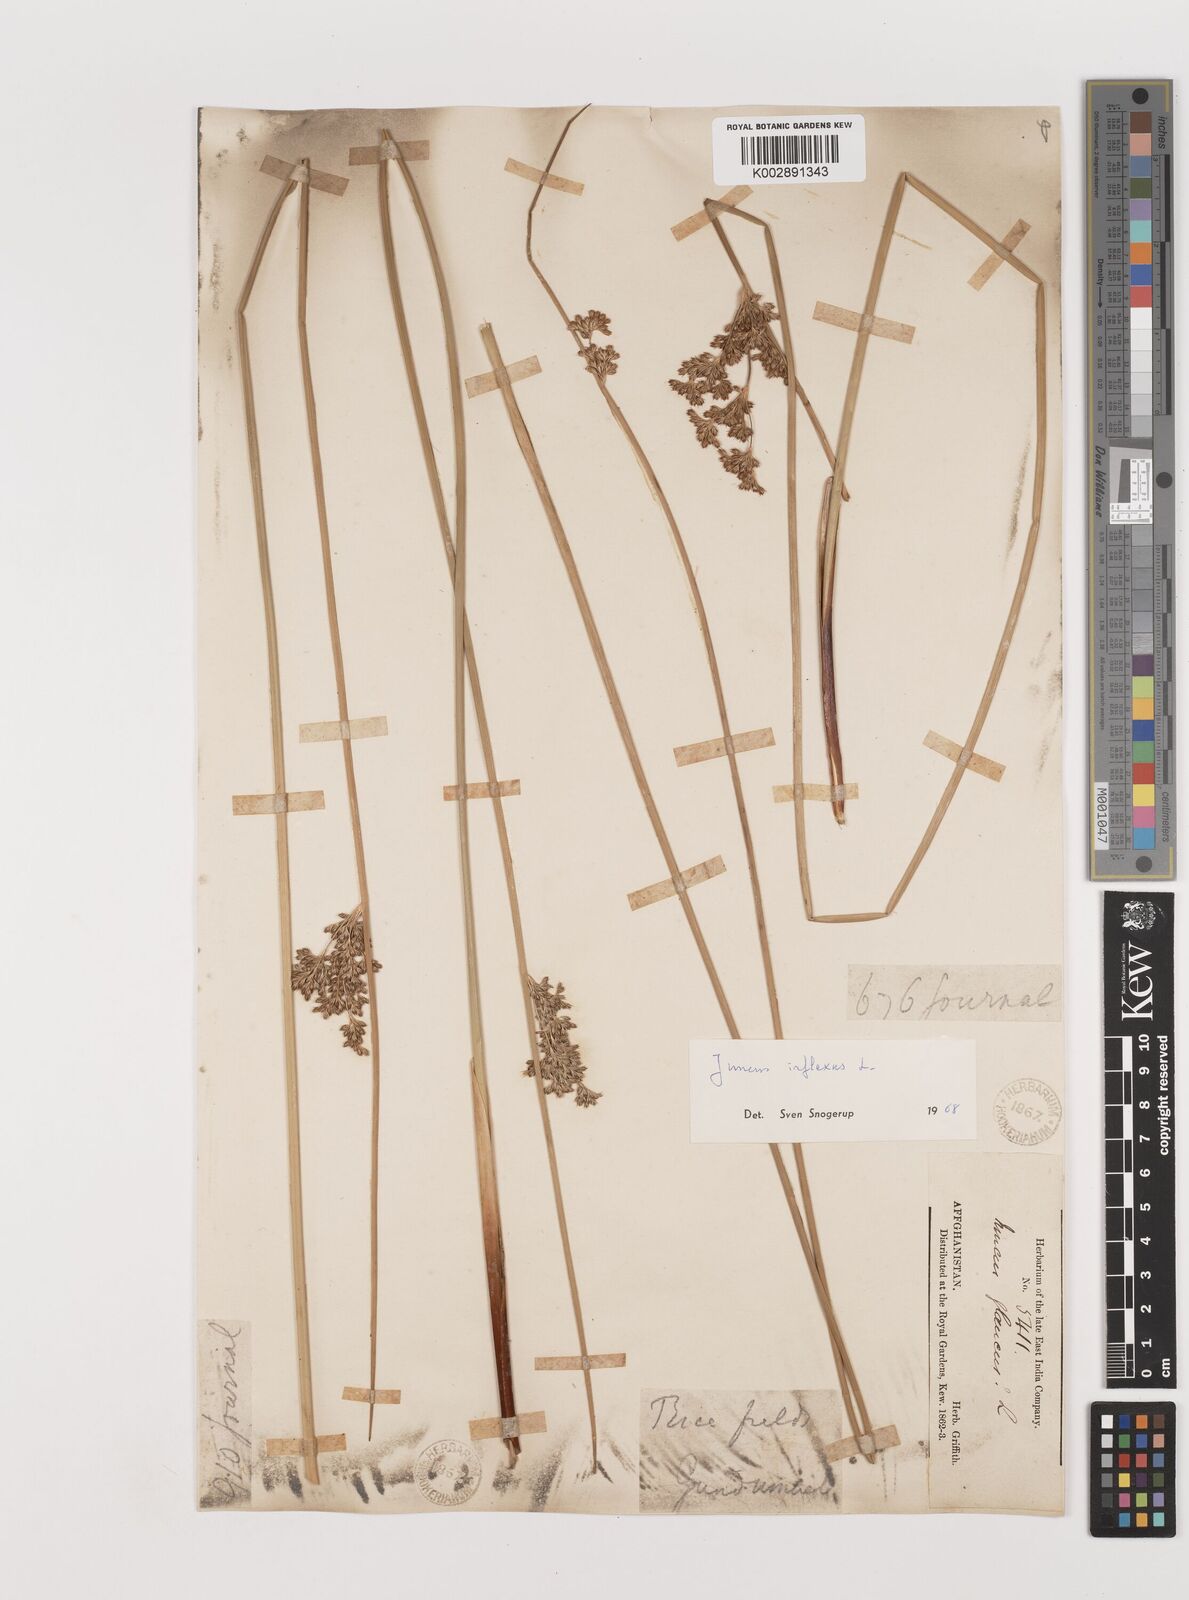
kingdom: Plantae
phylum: Tracheophyta
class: Liliopsida
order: Poales
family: Juncaceae
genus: Juncus
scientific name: Juncus inflexus
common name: Hard rush
